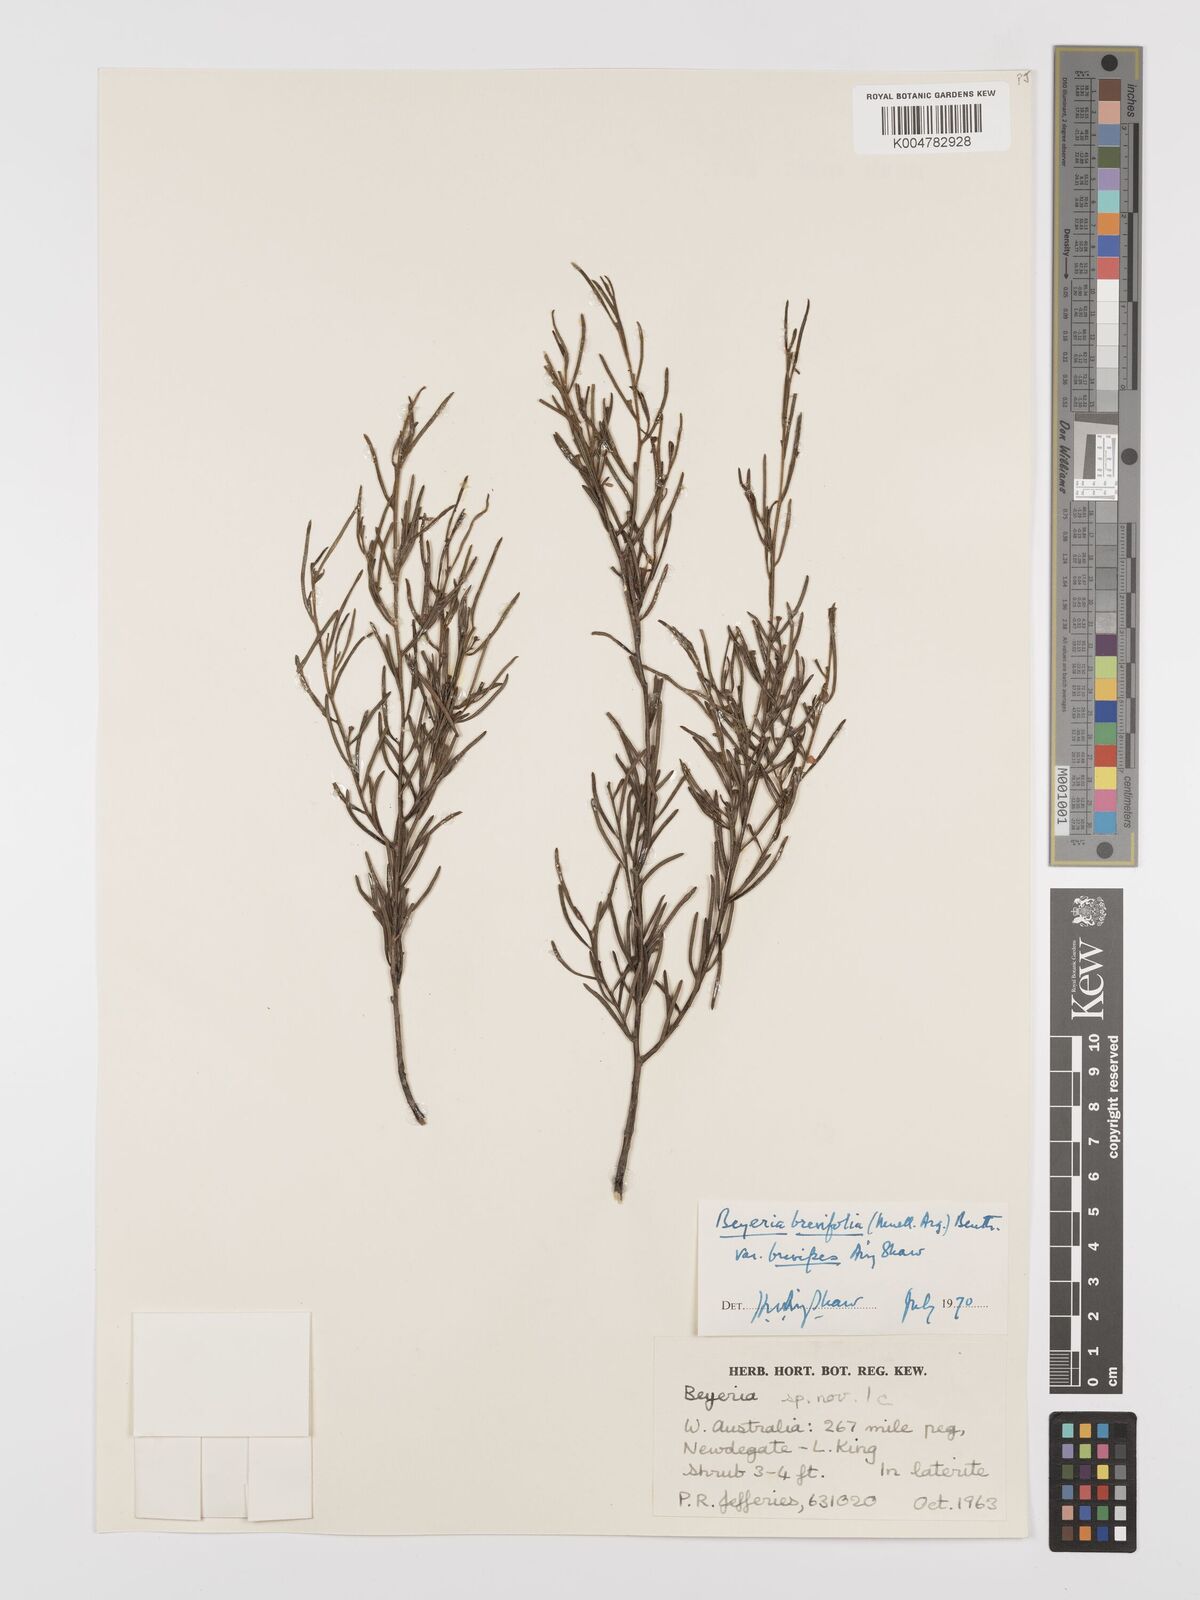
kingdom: Plantae
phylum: Tracheophyta
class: Magnoliopsida
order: Malpighiales
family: Euphorbiaceae
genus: Beyeria
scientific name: Beyeria sulcata
